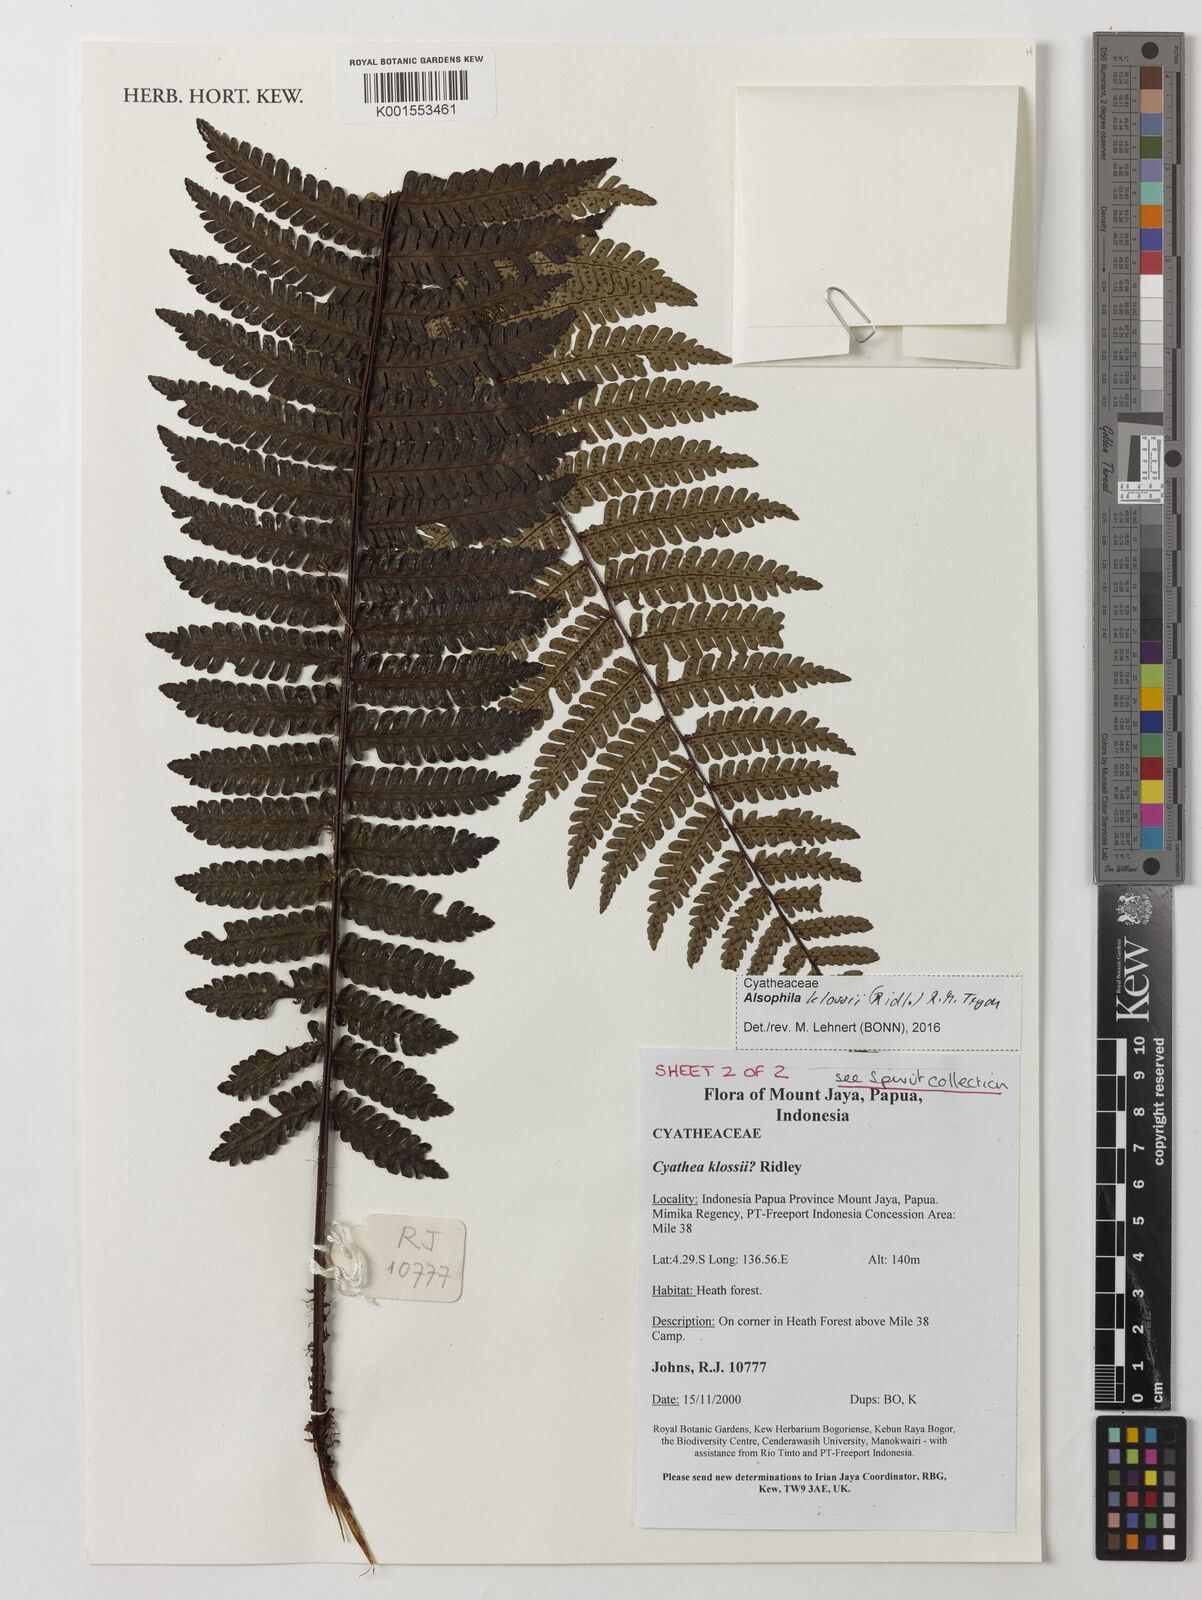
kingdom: Plantae
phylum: Tracheophyta
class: Polypodiopsida
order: Cyatheales
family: Cyatheaceae
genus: Alsophila
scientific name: Alsophila klossii
